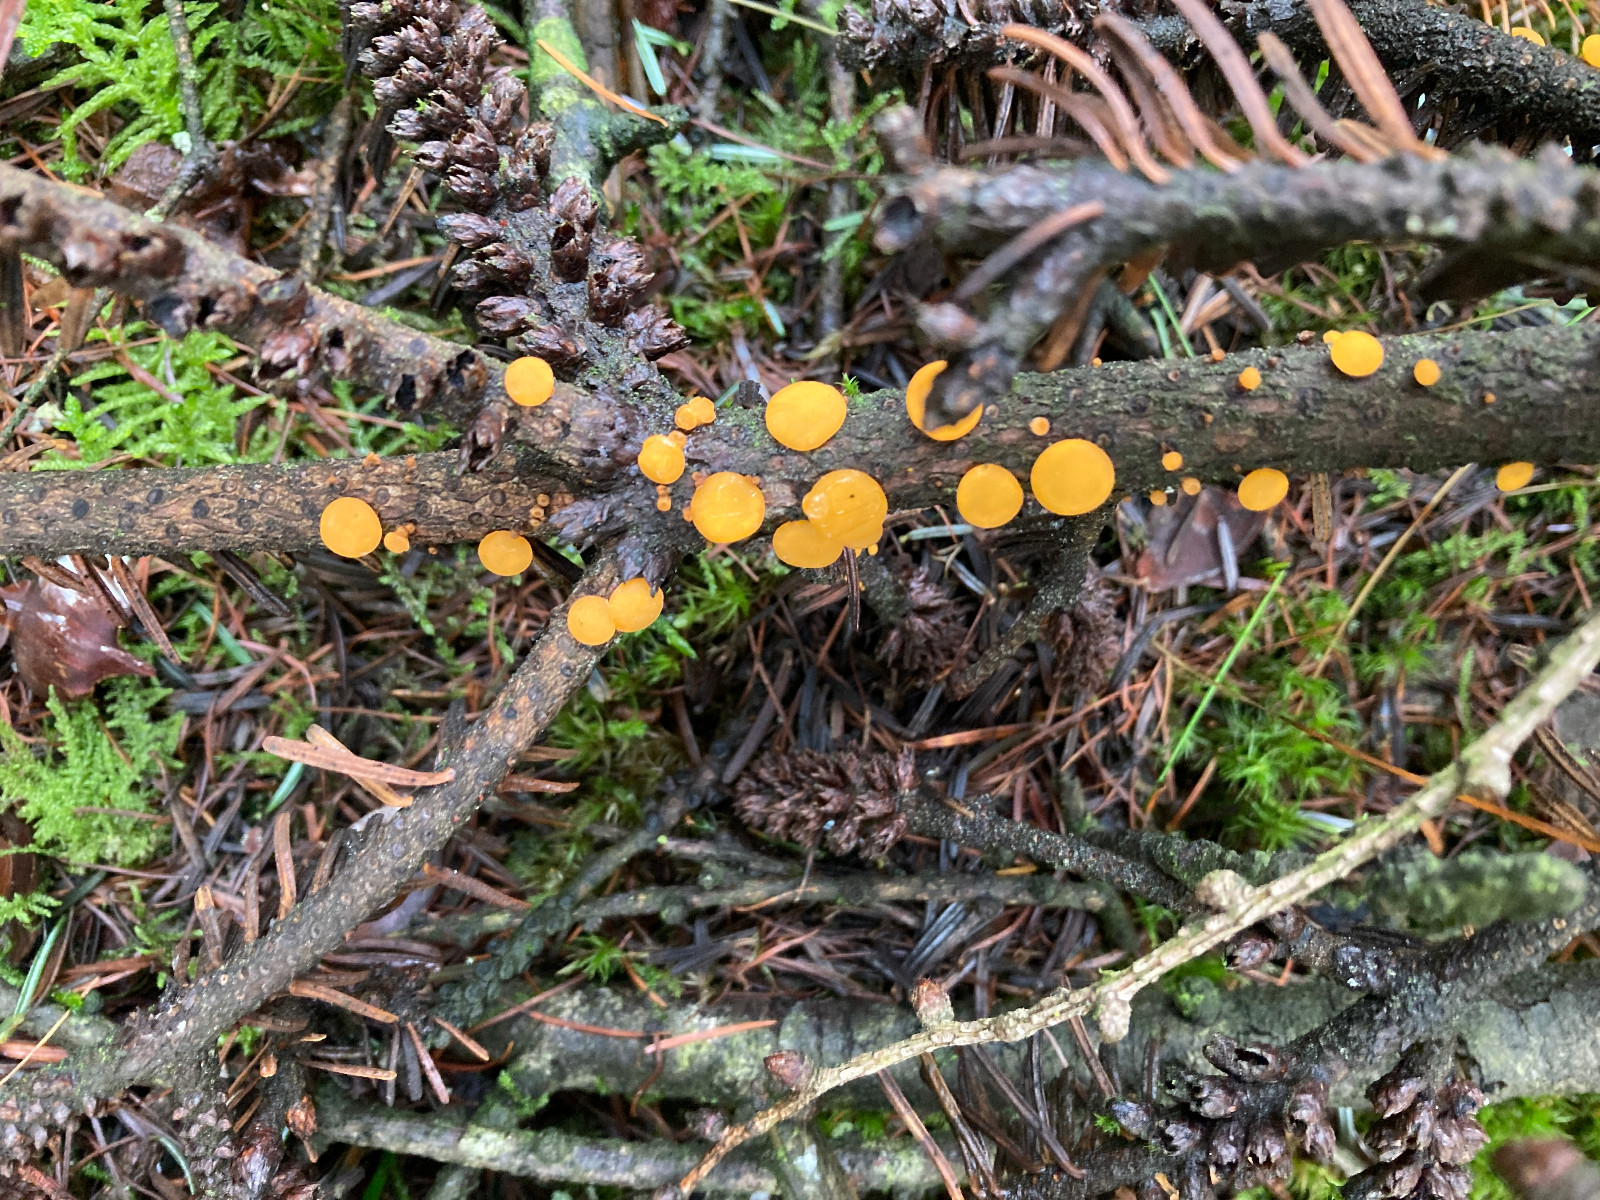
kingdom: Fungi
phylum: Ascomycota
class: Pezizomycetes
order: Pezizales
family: Sarcoscyphaceae
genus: Pithya
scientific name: Pithya vulgaris
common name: stor dukatbæger
